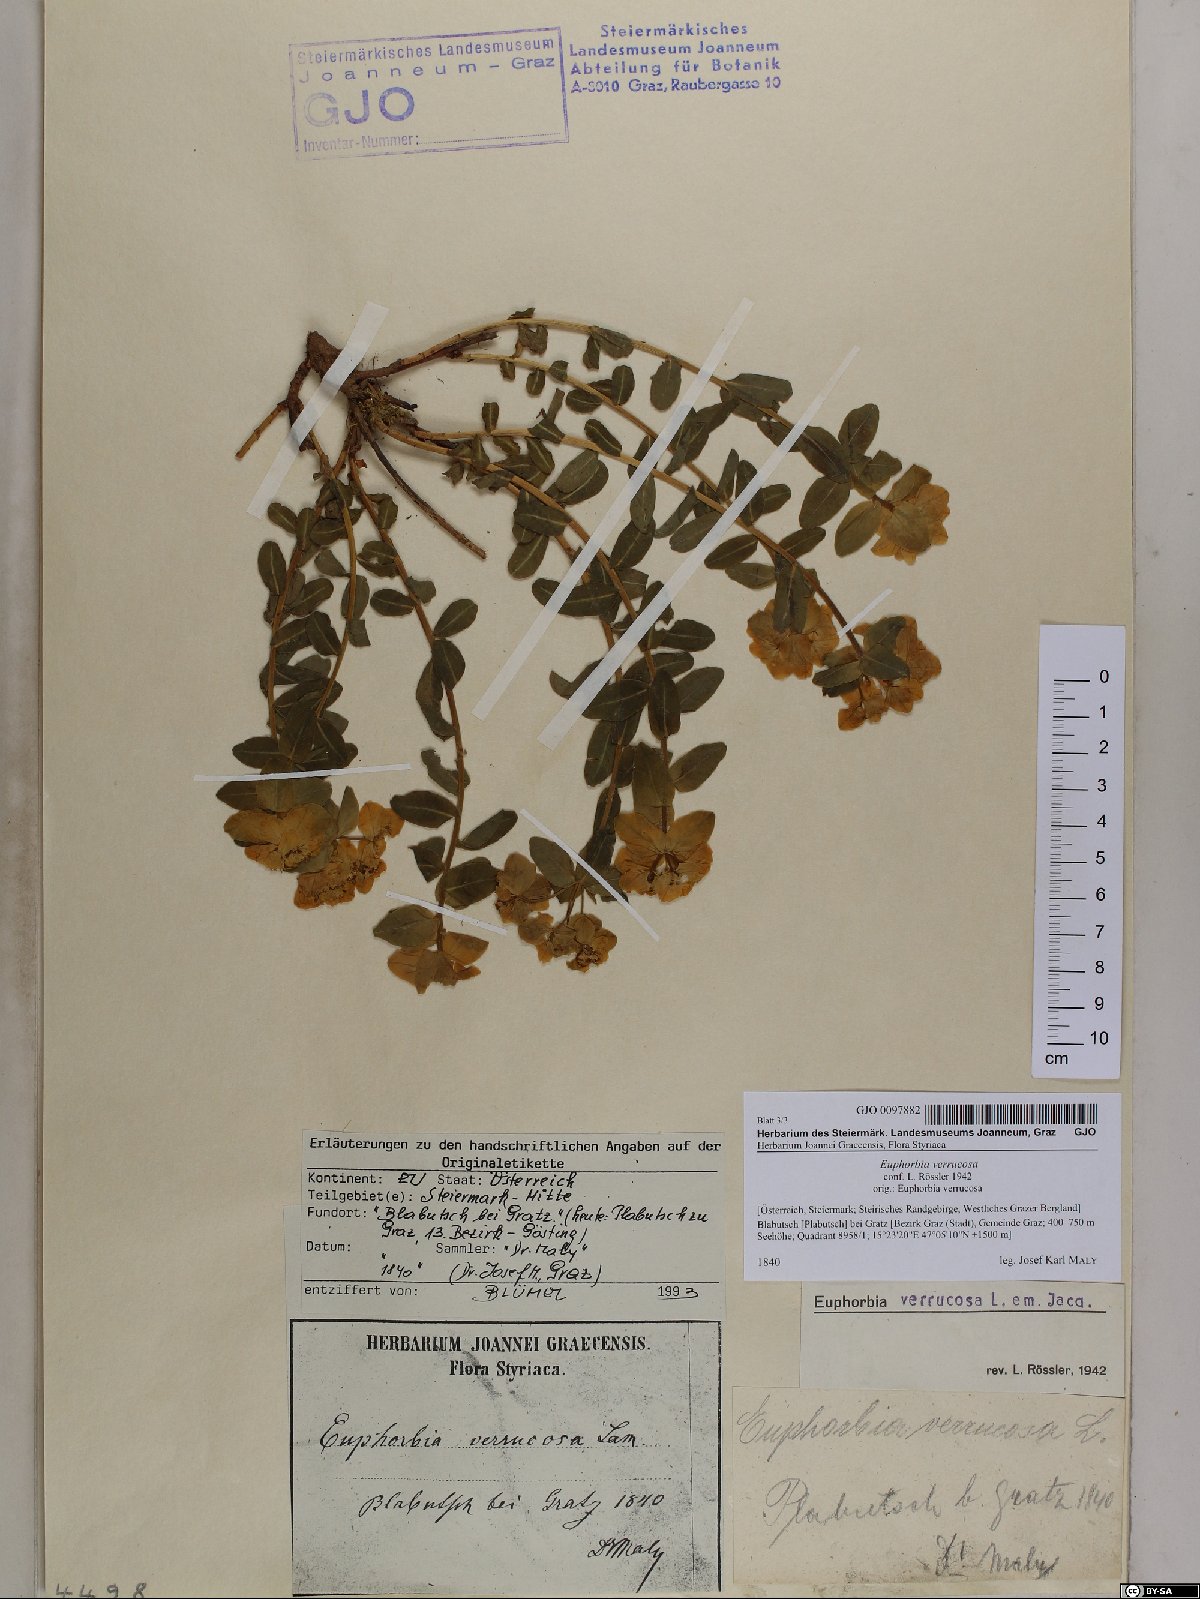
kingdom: Plantae
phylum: Tracheophyta
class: Magnoliopsida
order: Malpighiales
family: Euphorbiaceae
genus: Euphorbia
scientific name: Euphorbia verrucosa
